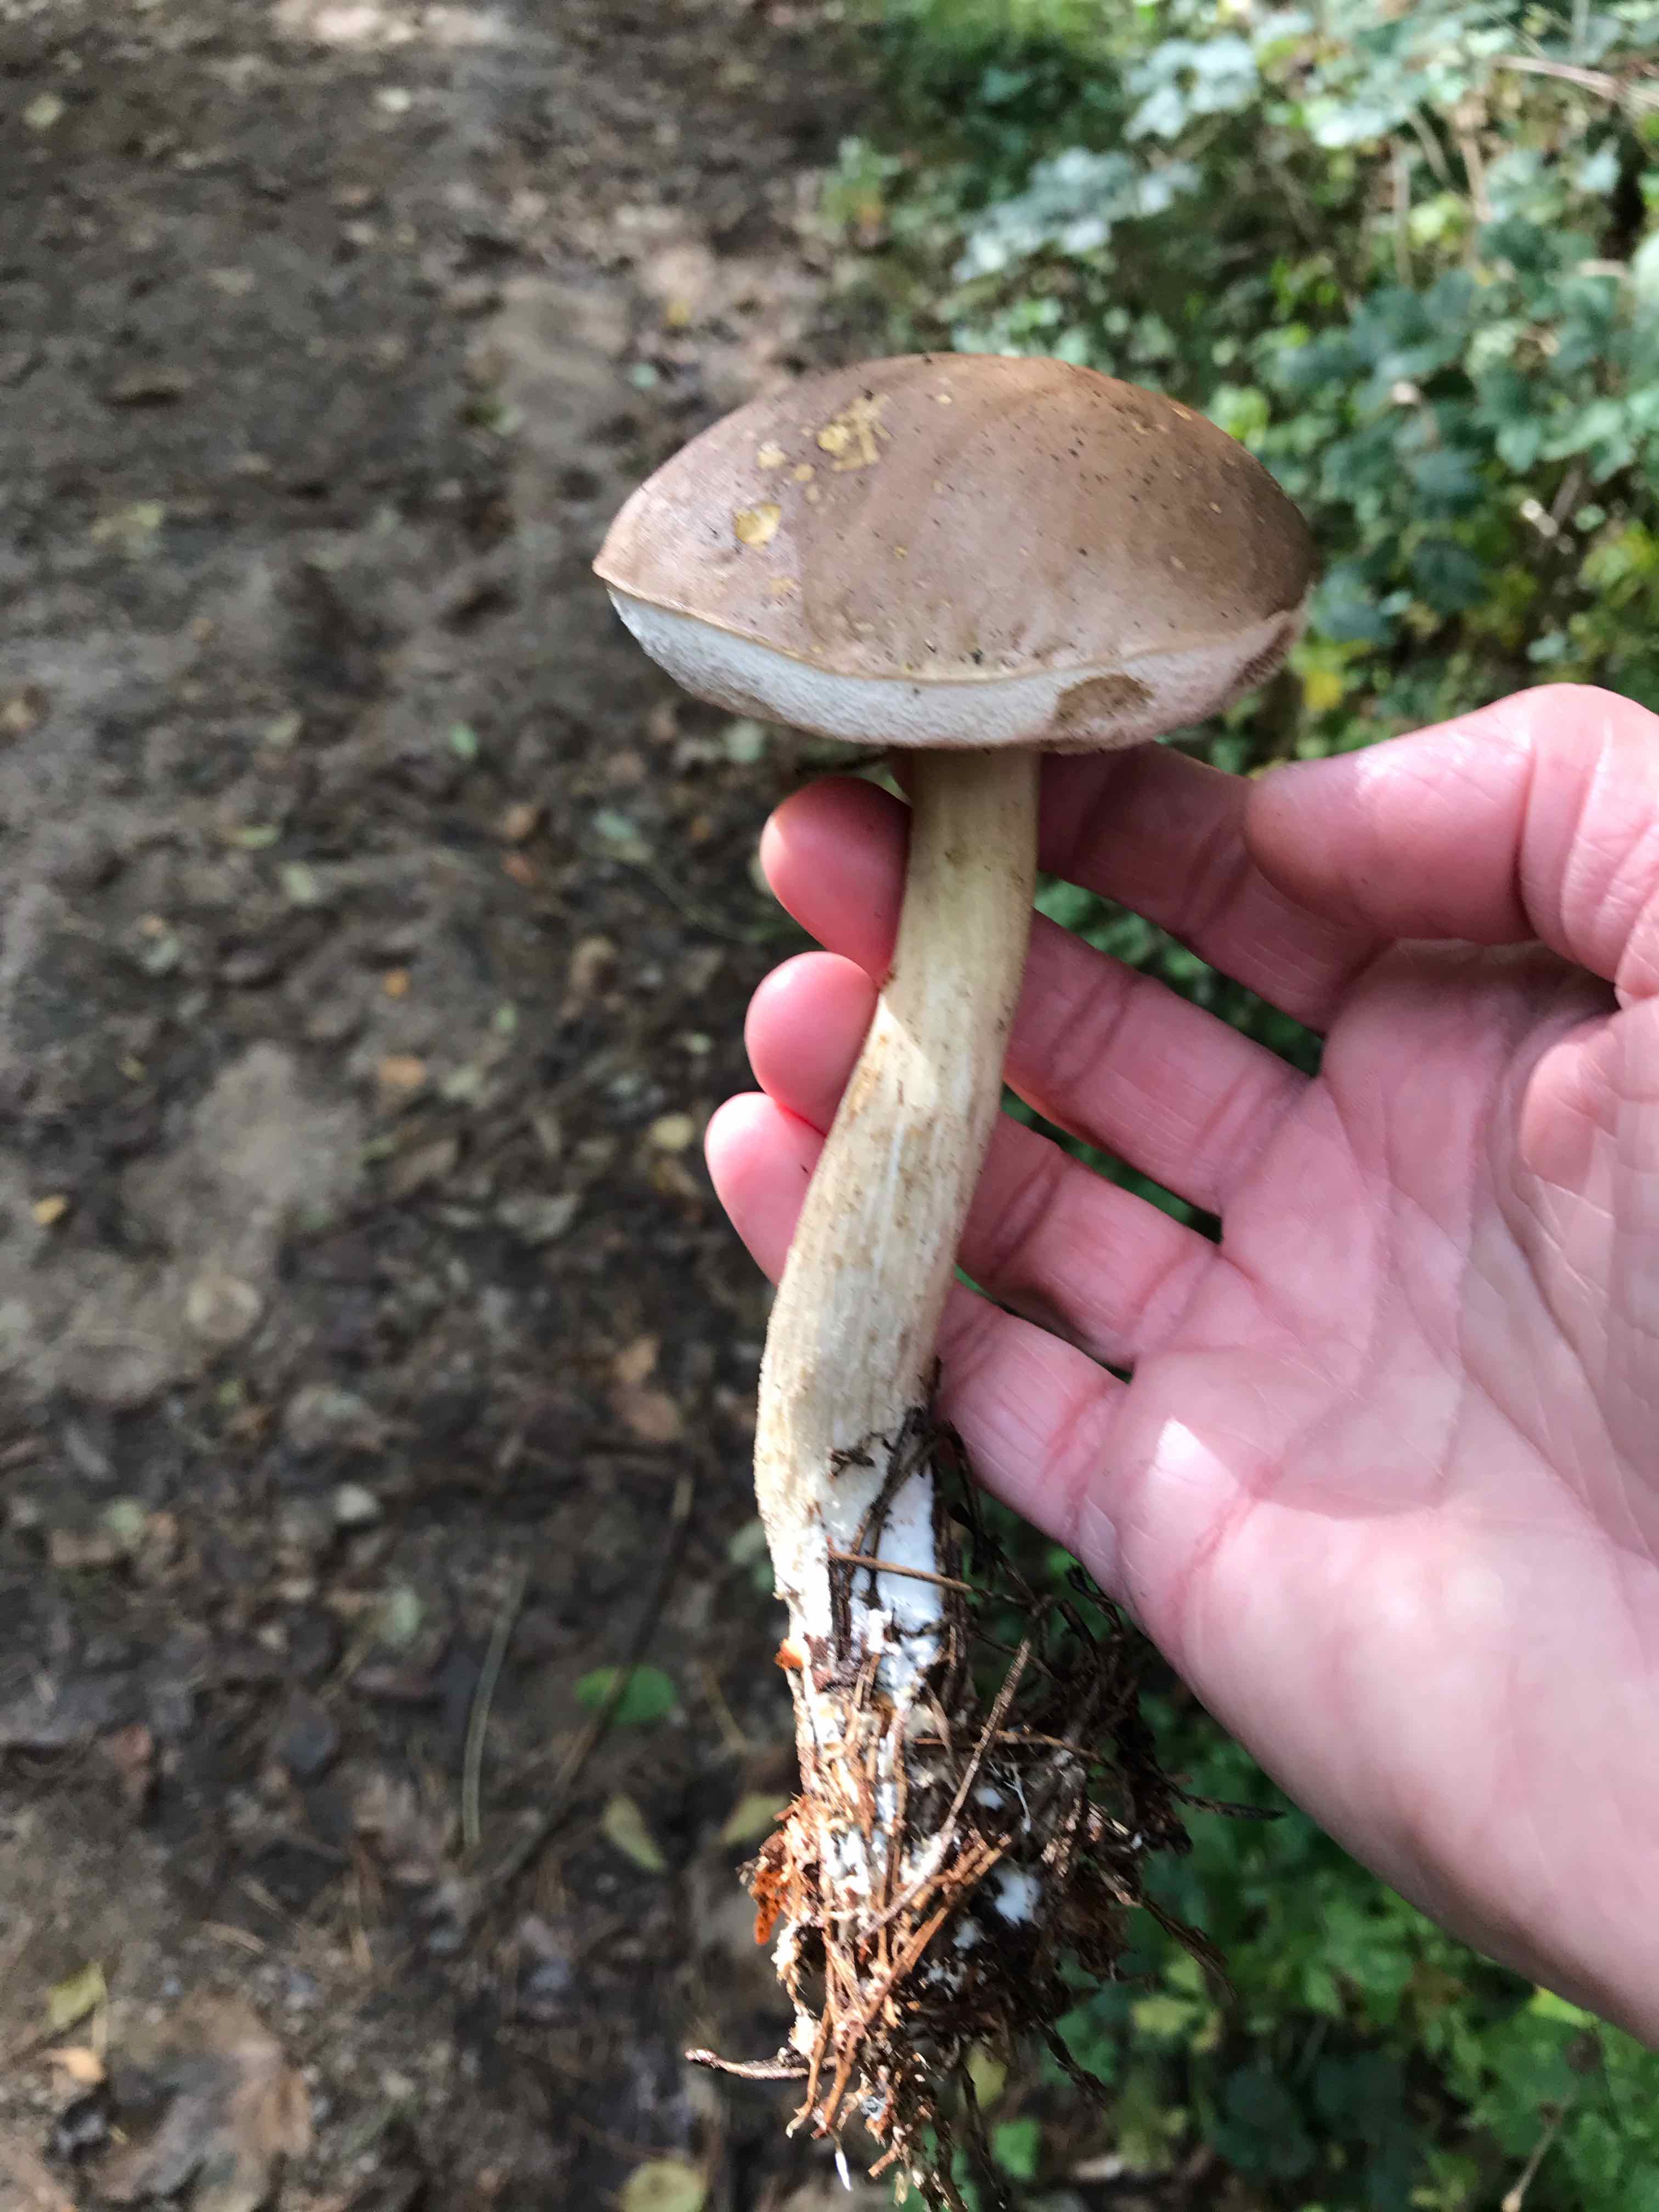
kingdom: Fungi
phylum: Basidiomycota
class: Agaricomycetes
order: Boletales
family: Boletaceae
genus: Leccinum
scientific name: Leccinum
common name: skælrørhat
